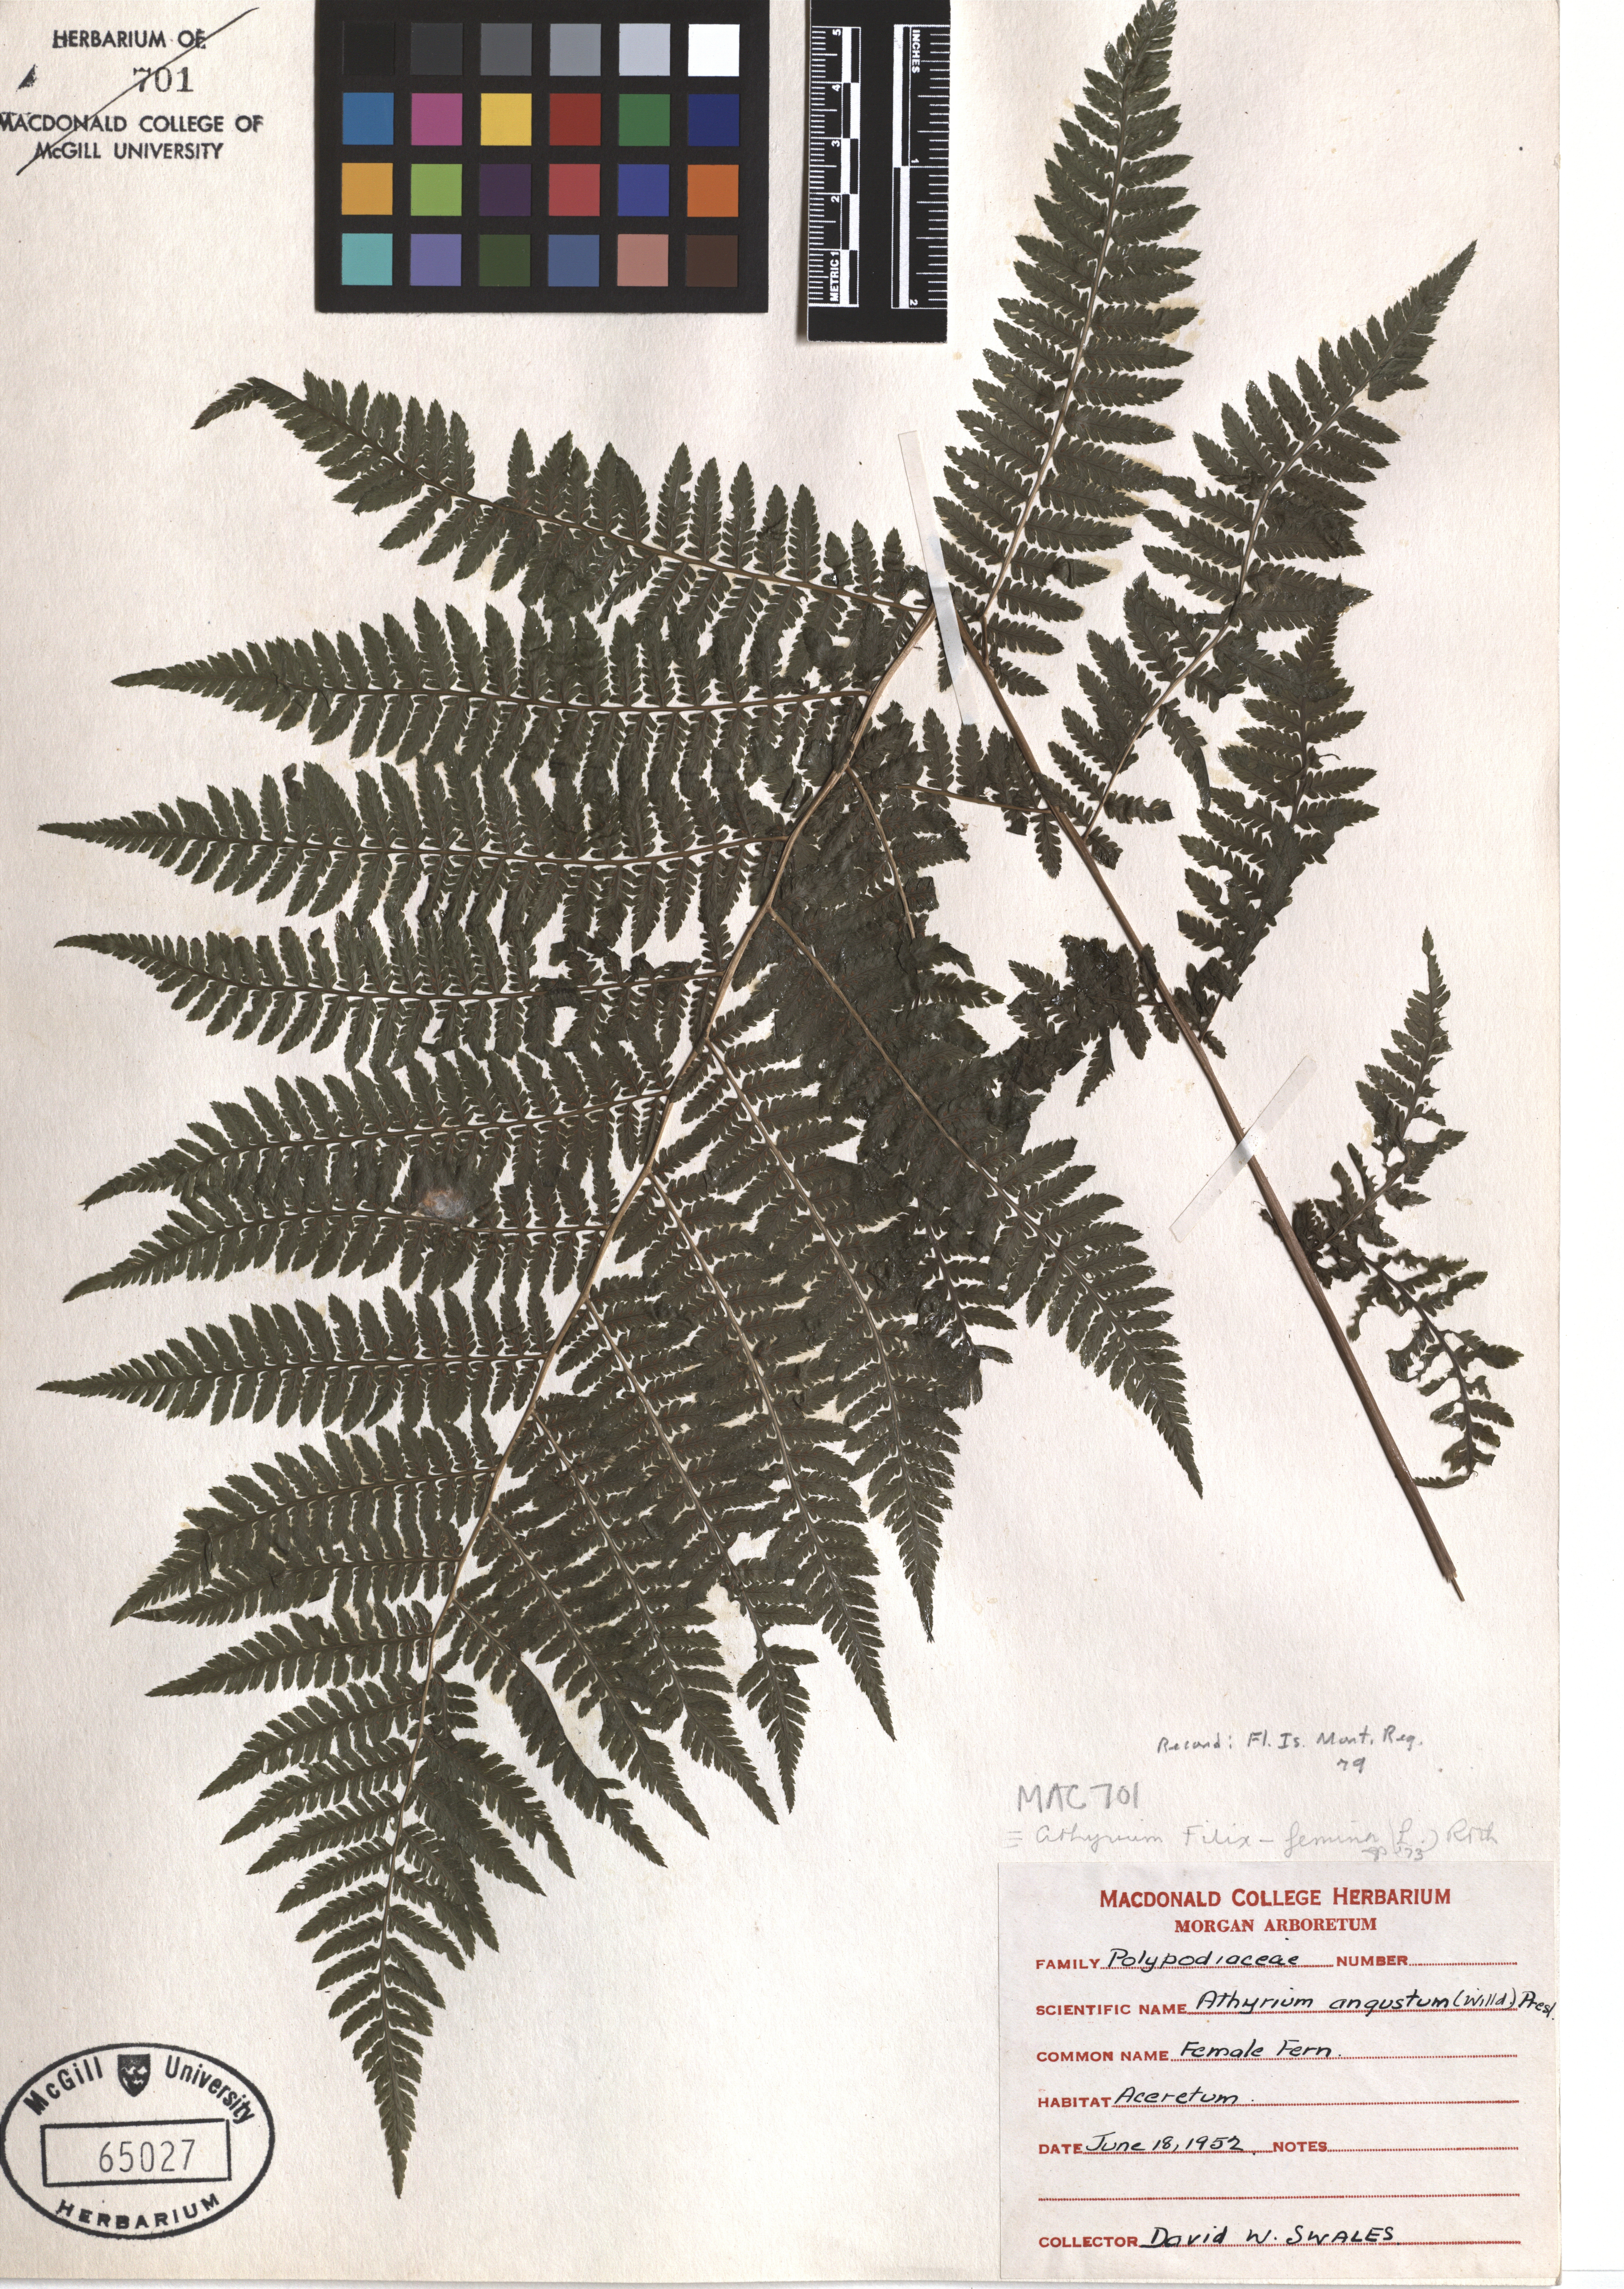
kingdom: Plantae
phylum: Tracheophyta
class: Polypodiopsida
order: Polypodiales
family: Athyriaceae
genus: Athyrium
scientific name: Athyrium filix-femina
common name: Lady fern
